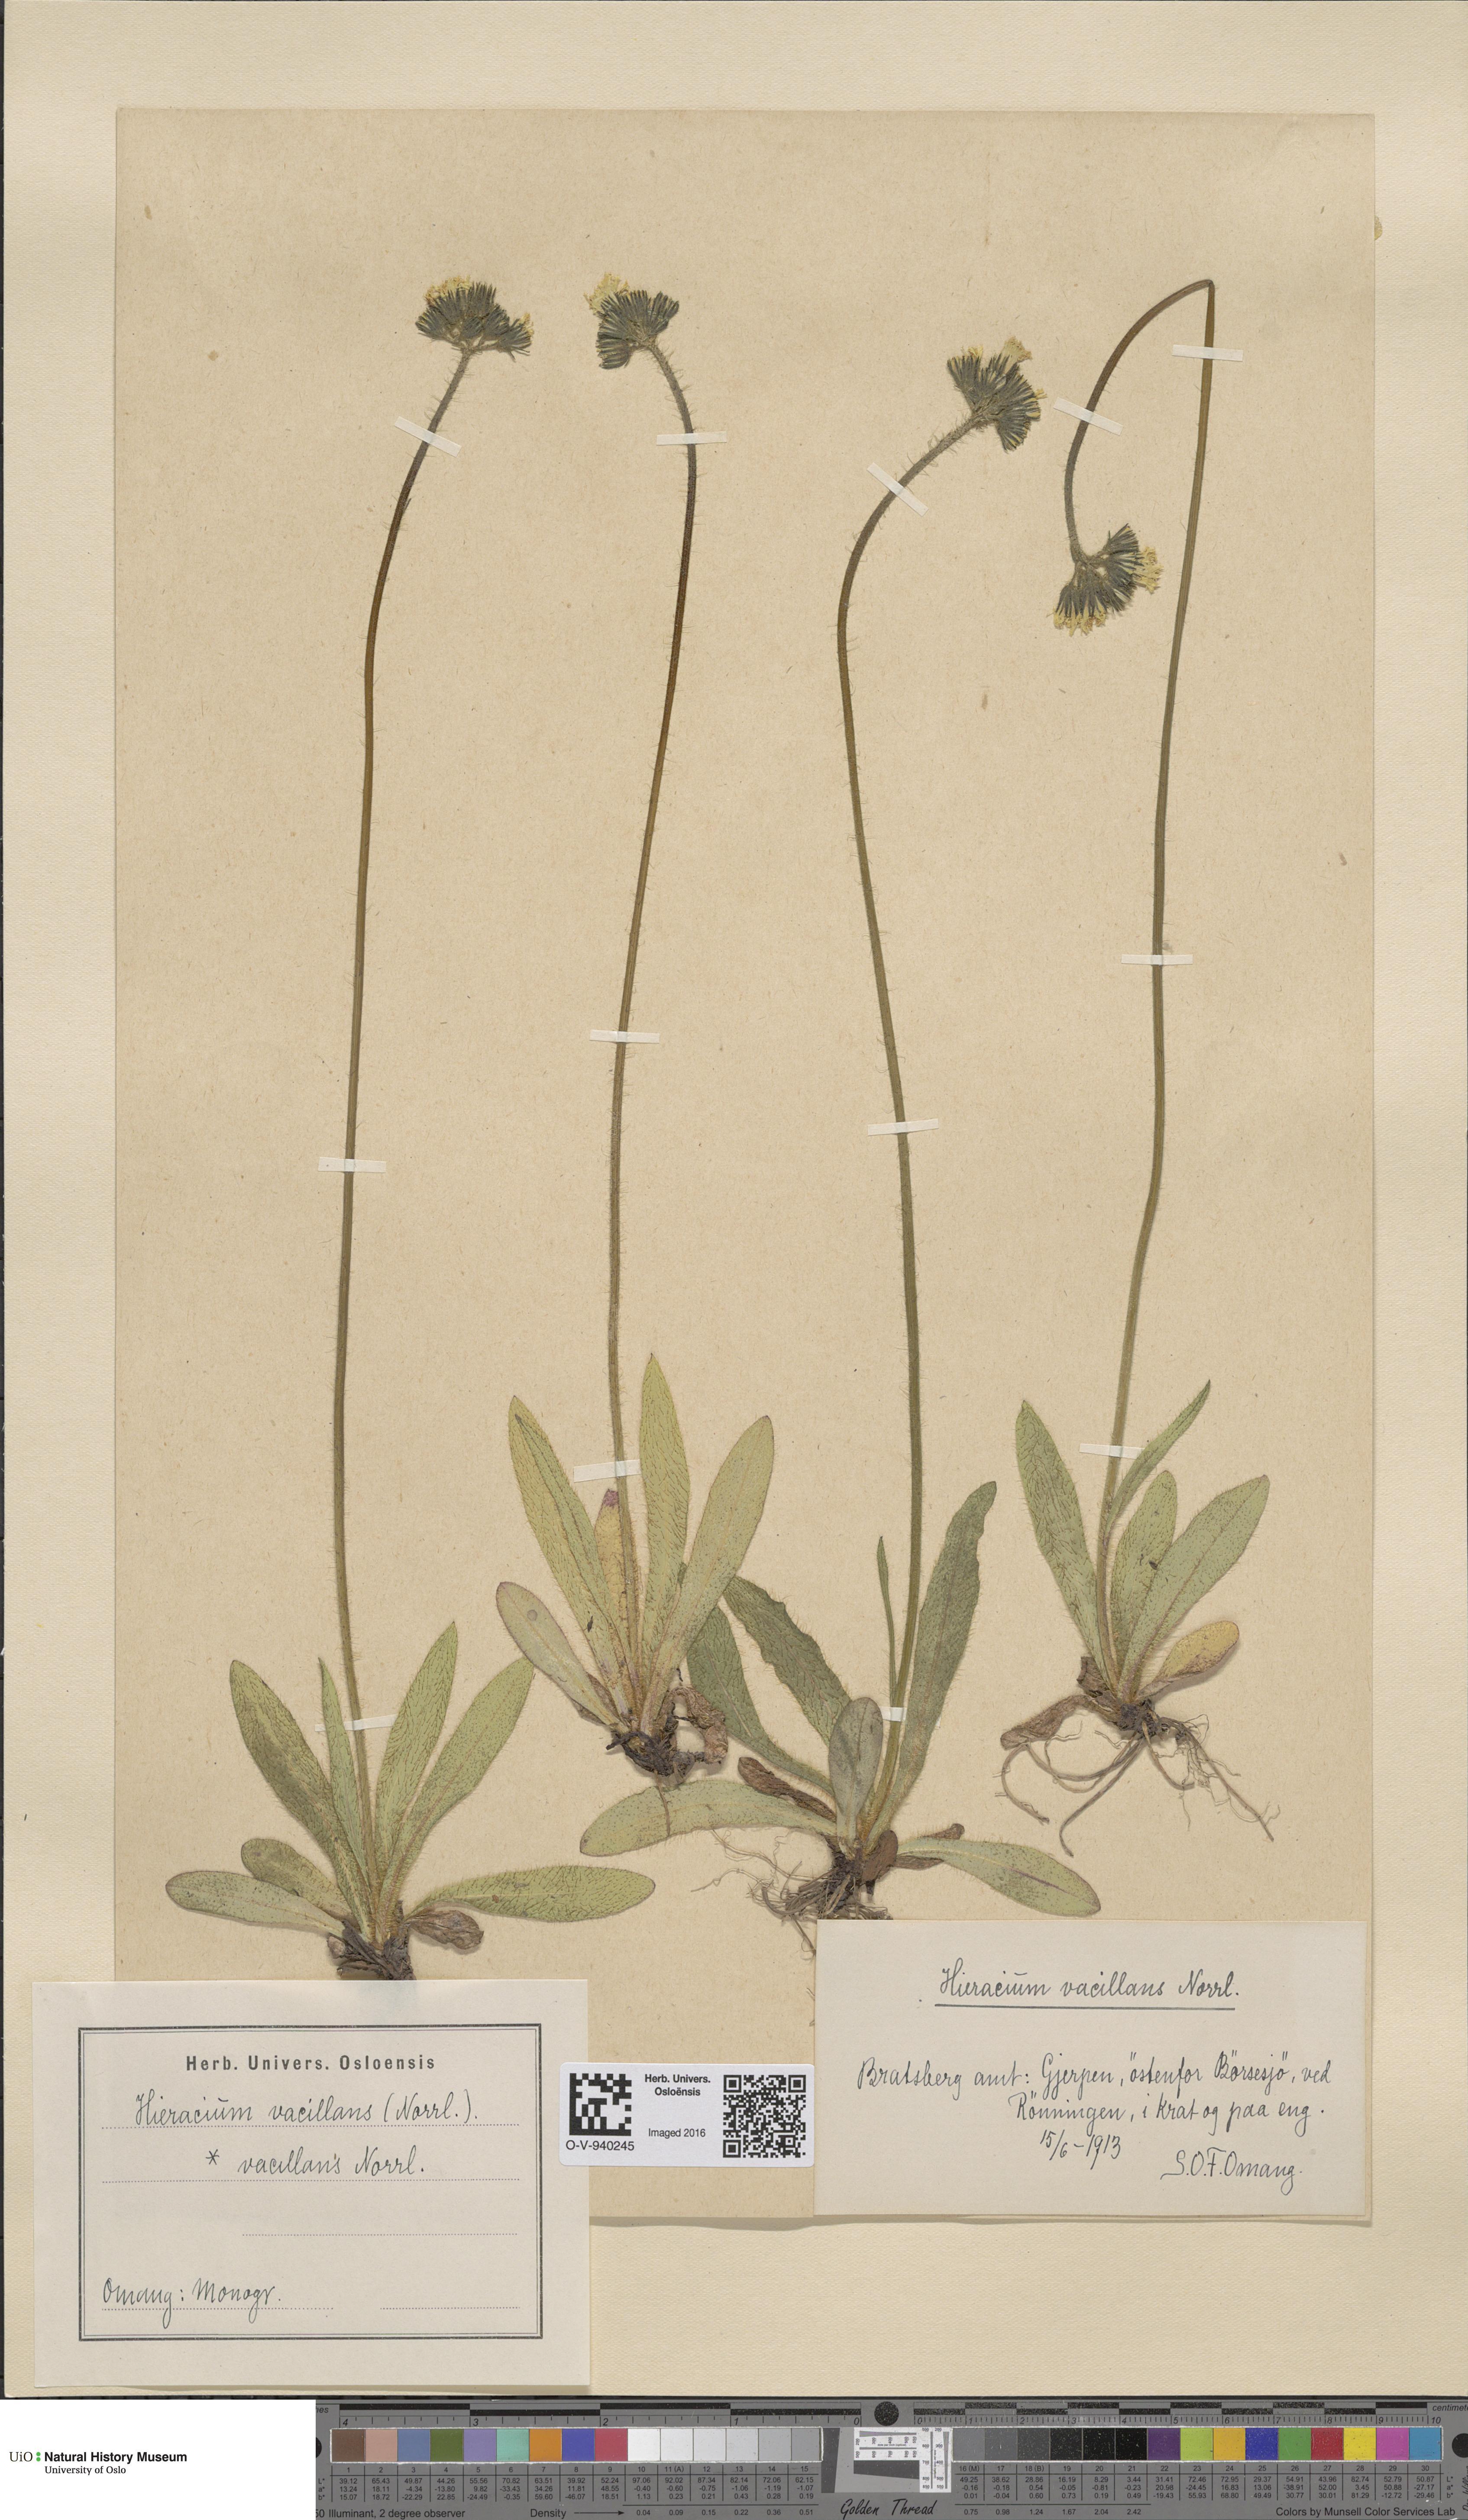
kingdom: Plantae
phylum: Tracheophyta
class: Magnoliopsida
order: Asterales
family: Asteraceae
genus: Pilosella
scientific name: Pilosella glomerata
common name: Queen devil hawkweed
